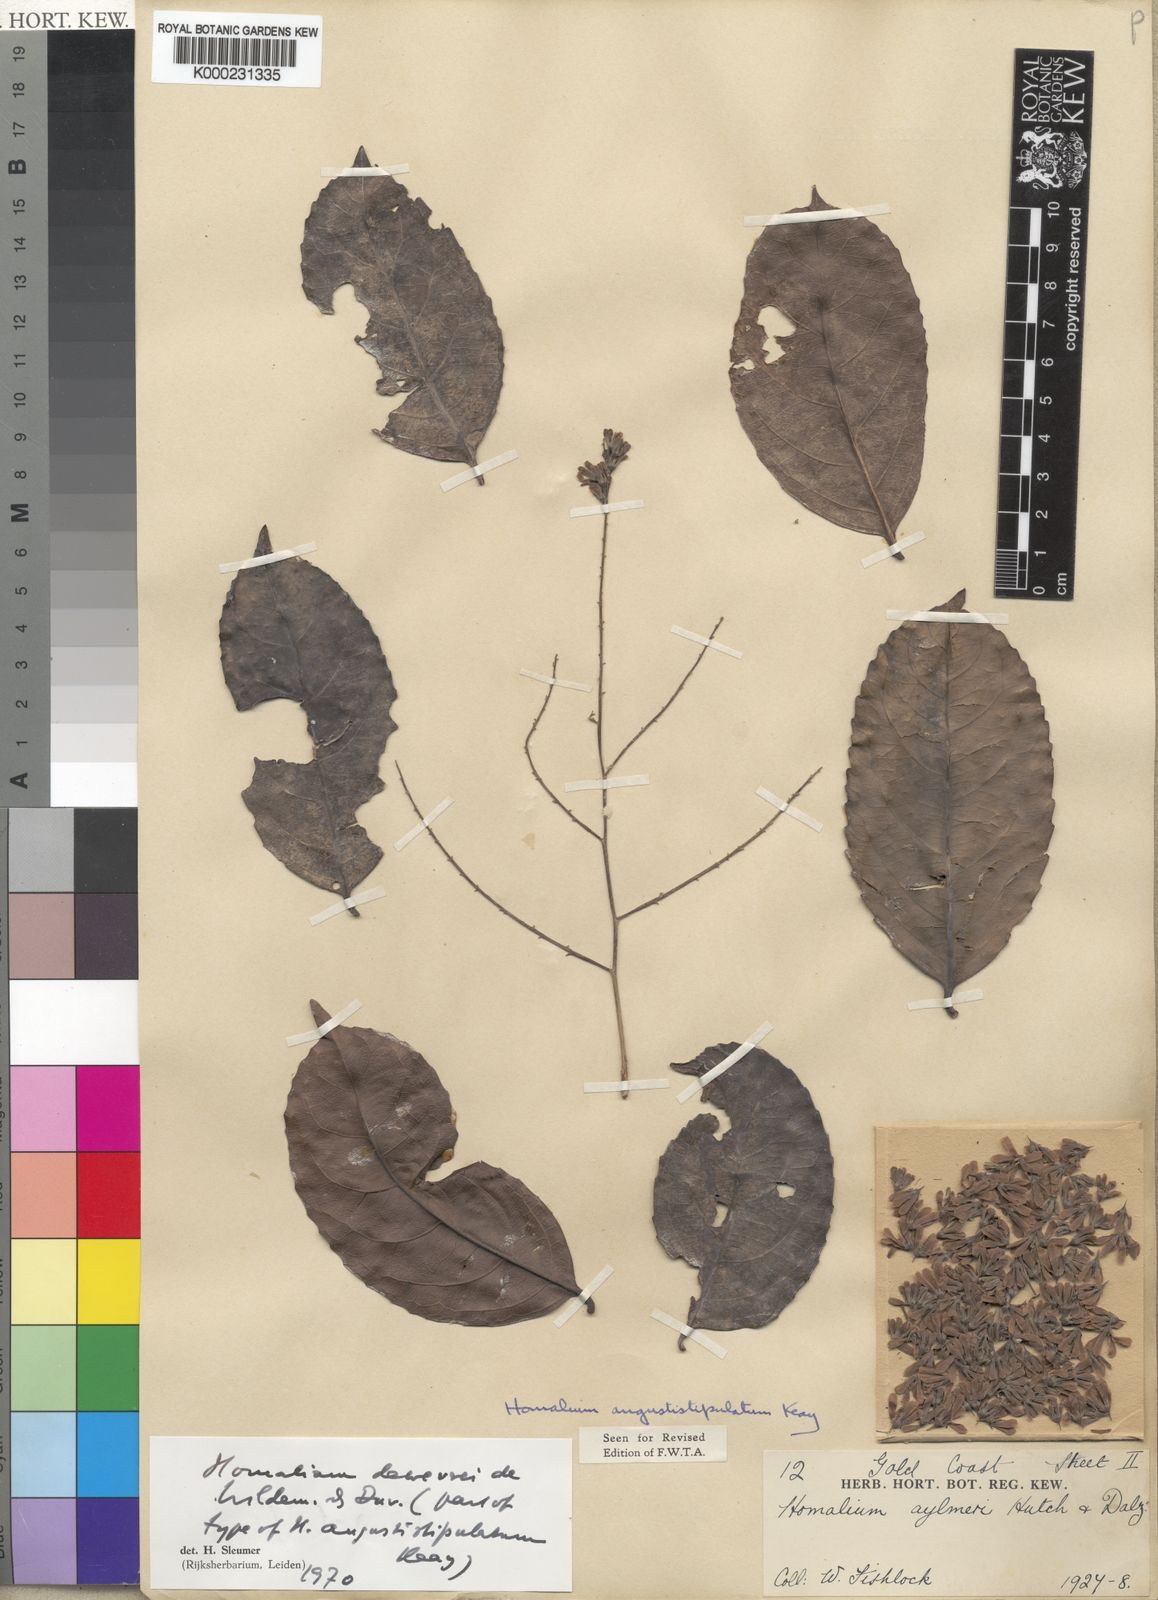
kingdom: Plantae
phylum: Tracheophyta
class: Magnoliopsida
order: Malpighiales
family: Salicaceae
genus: Homalium
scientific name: Homalium dewevrei
